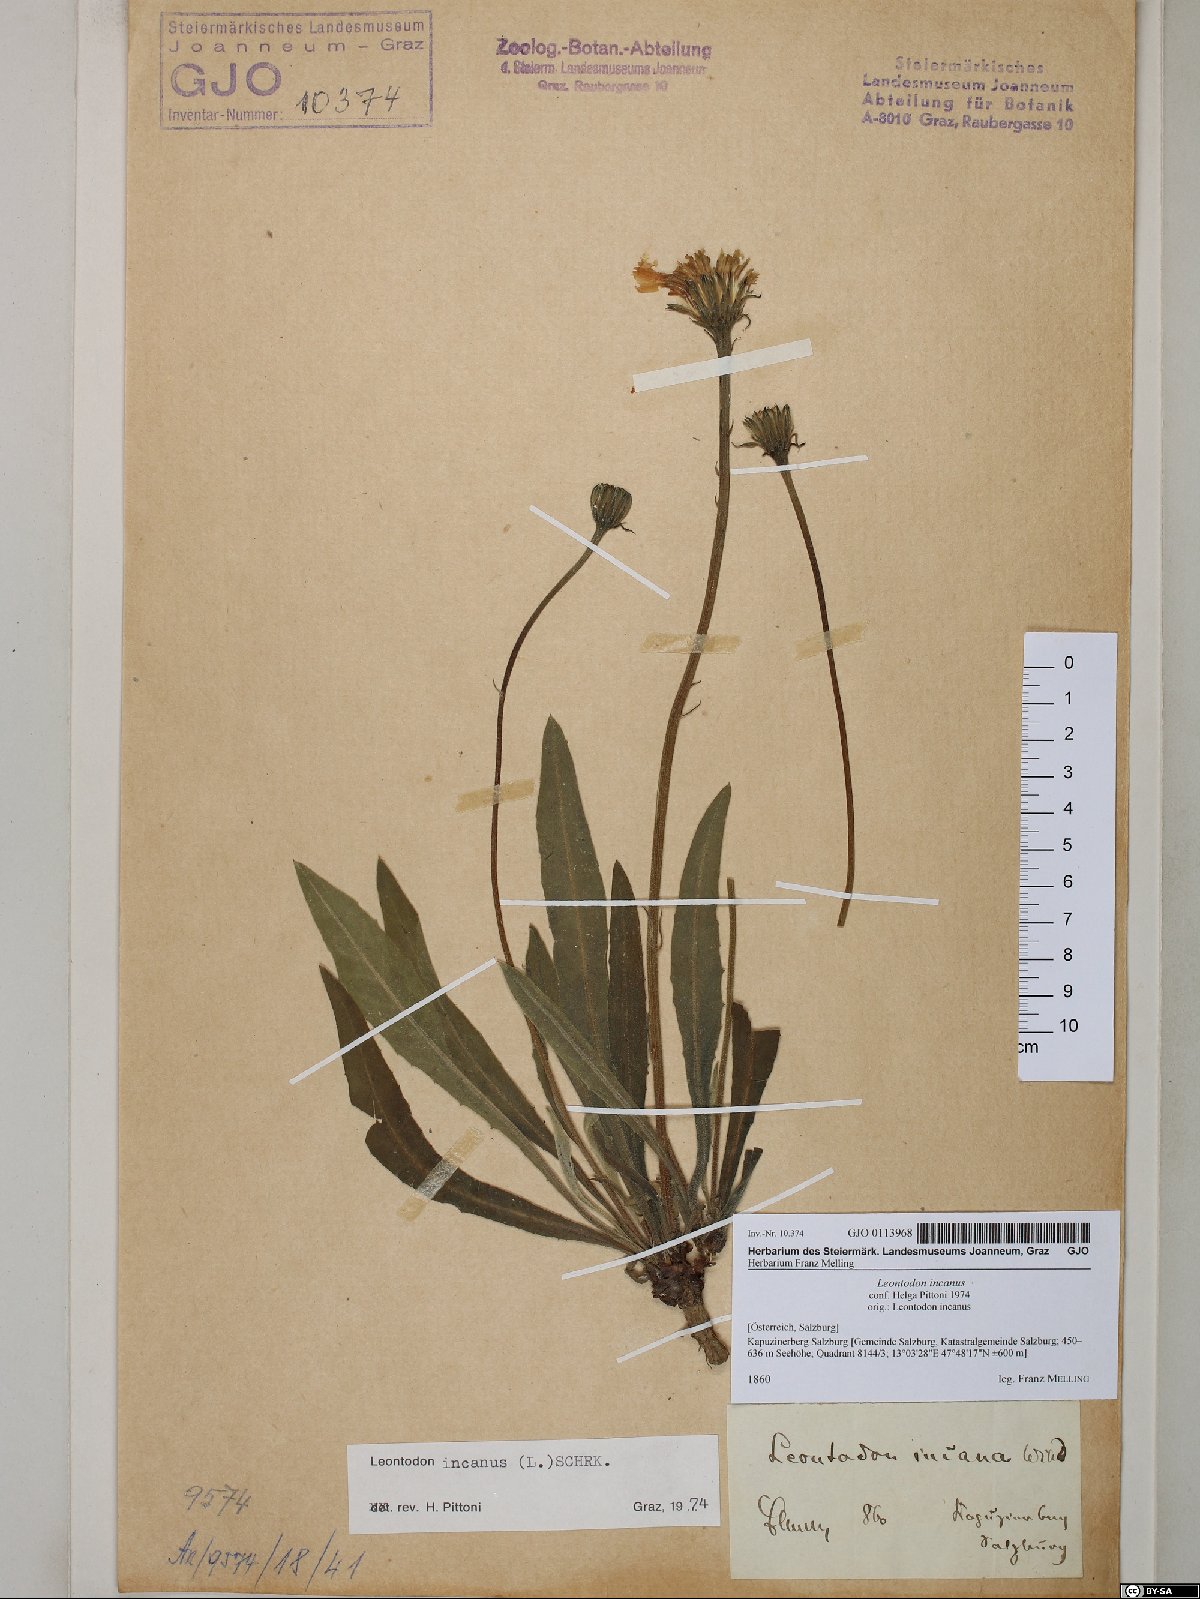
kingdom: Plantae
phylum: Tracheophyta
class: Magnoliopsida
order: Asterales
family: Asteraceae
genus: Leontodon
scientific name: Leontodon incanus
